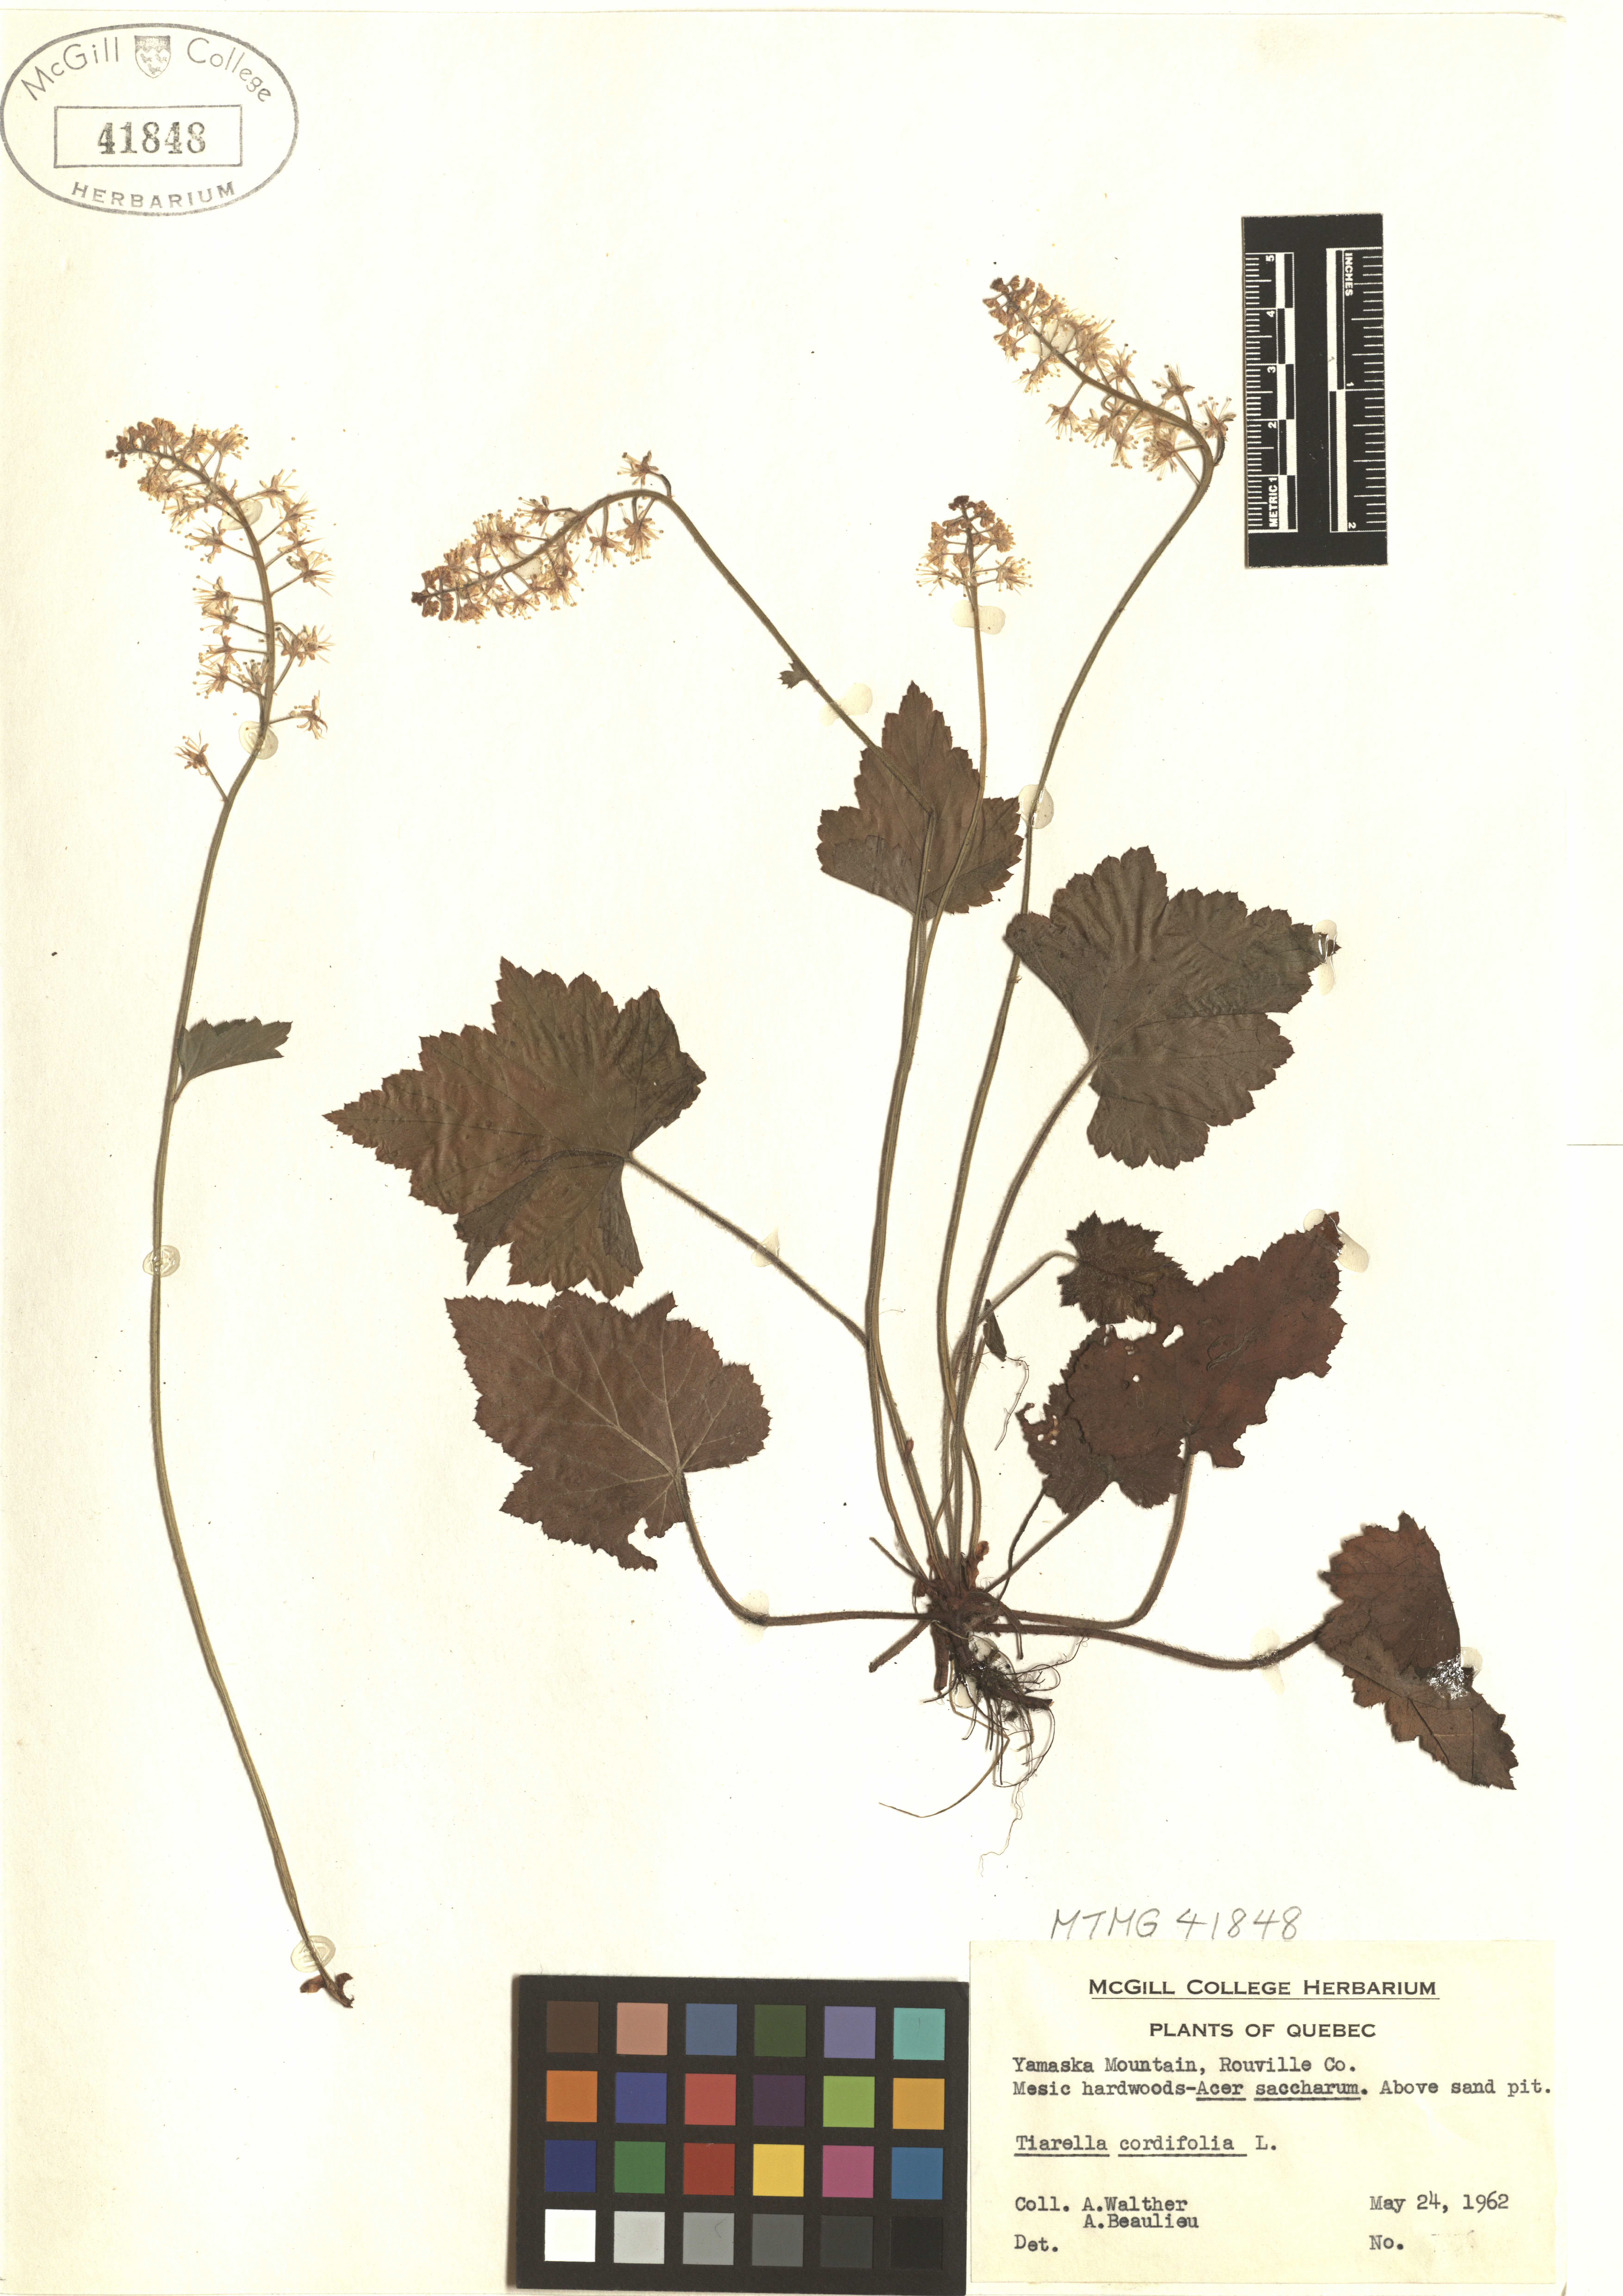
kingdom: Plantae
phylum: Tracheophyta
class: Magnoliopsida
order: Saxifragales
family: Saxifragaceae
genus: Tiarella
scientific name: Tiarella cordifolia
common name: Foamflower
